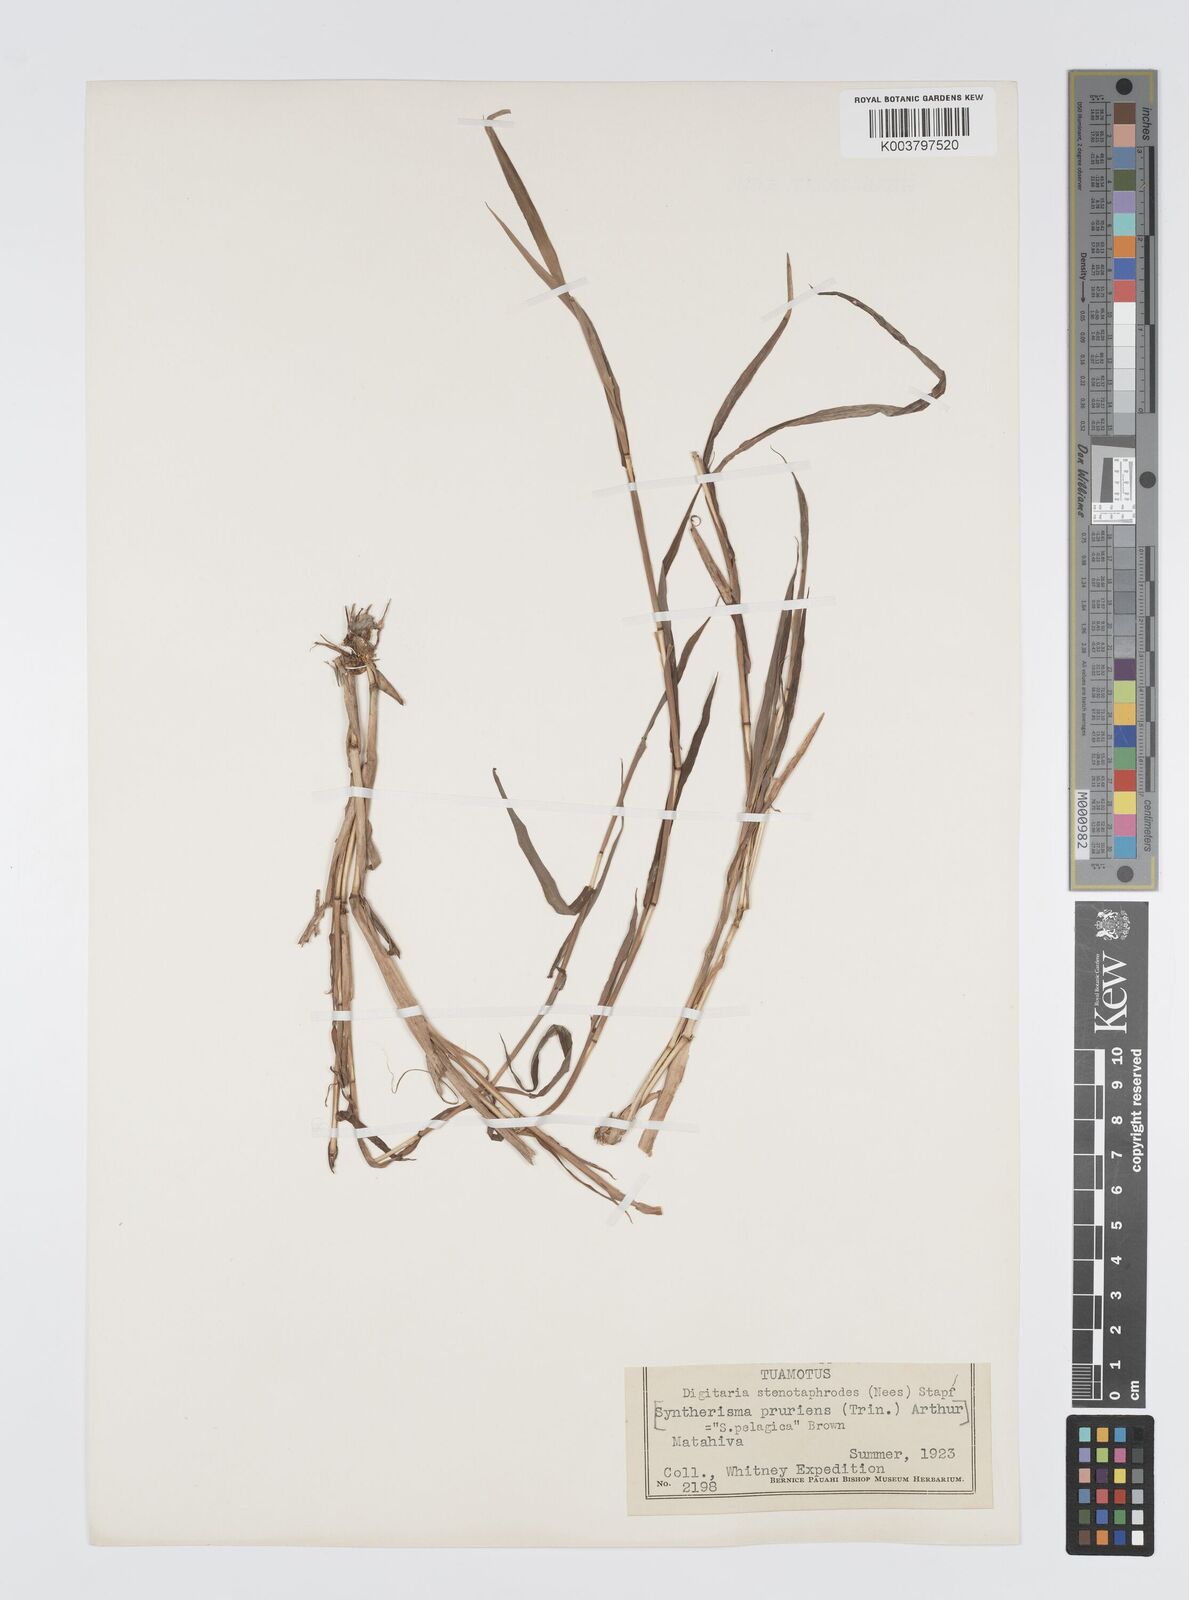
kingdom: Plantae
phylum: Tracheophyta
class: Liliopsida
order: Poales
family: Poaceae
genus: Digitaria
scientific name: Digitaria stenotaphrodes
